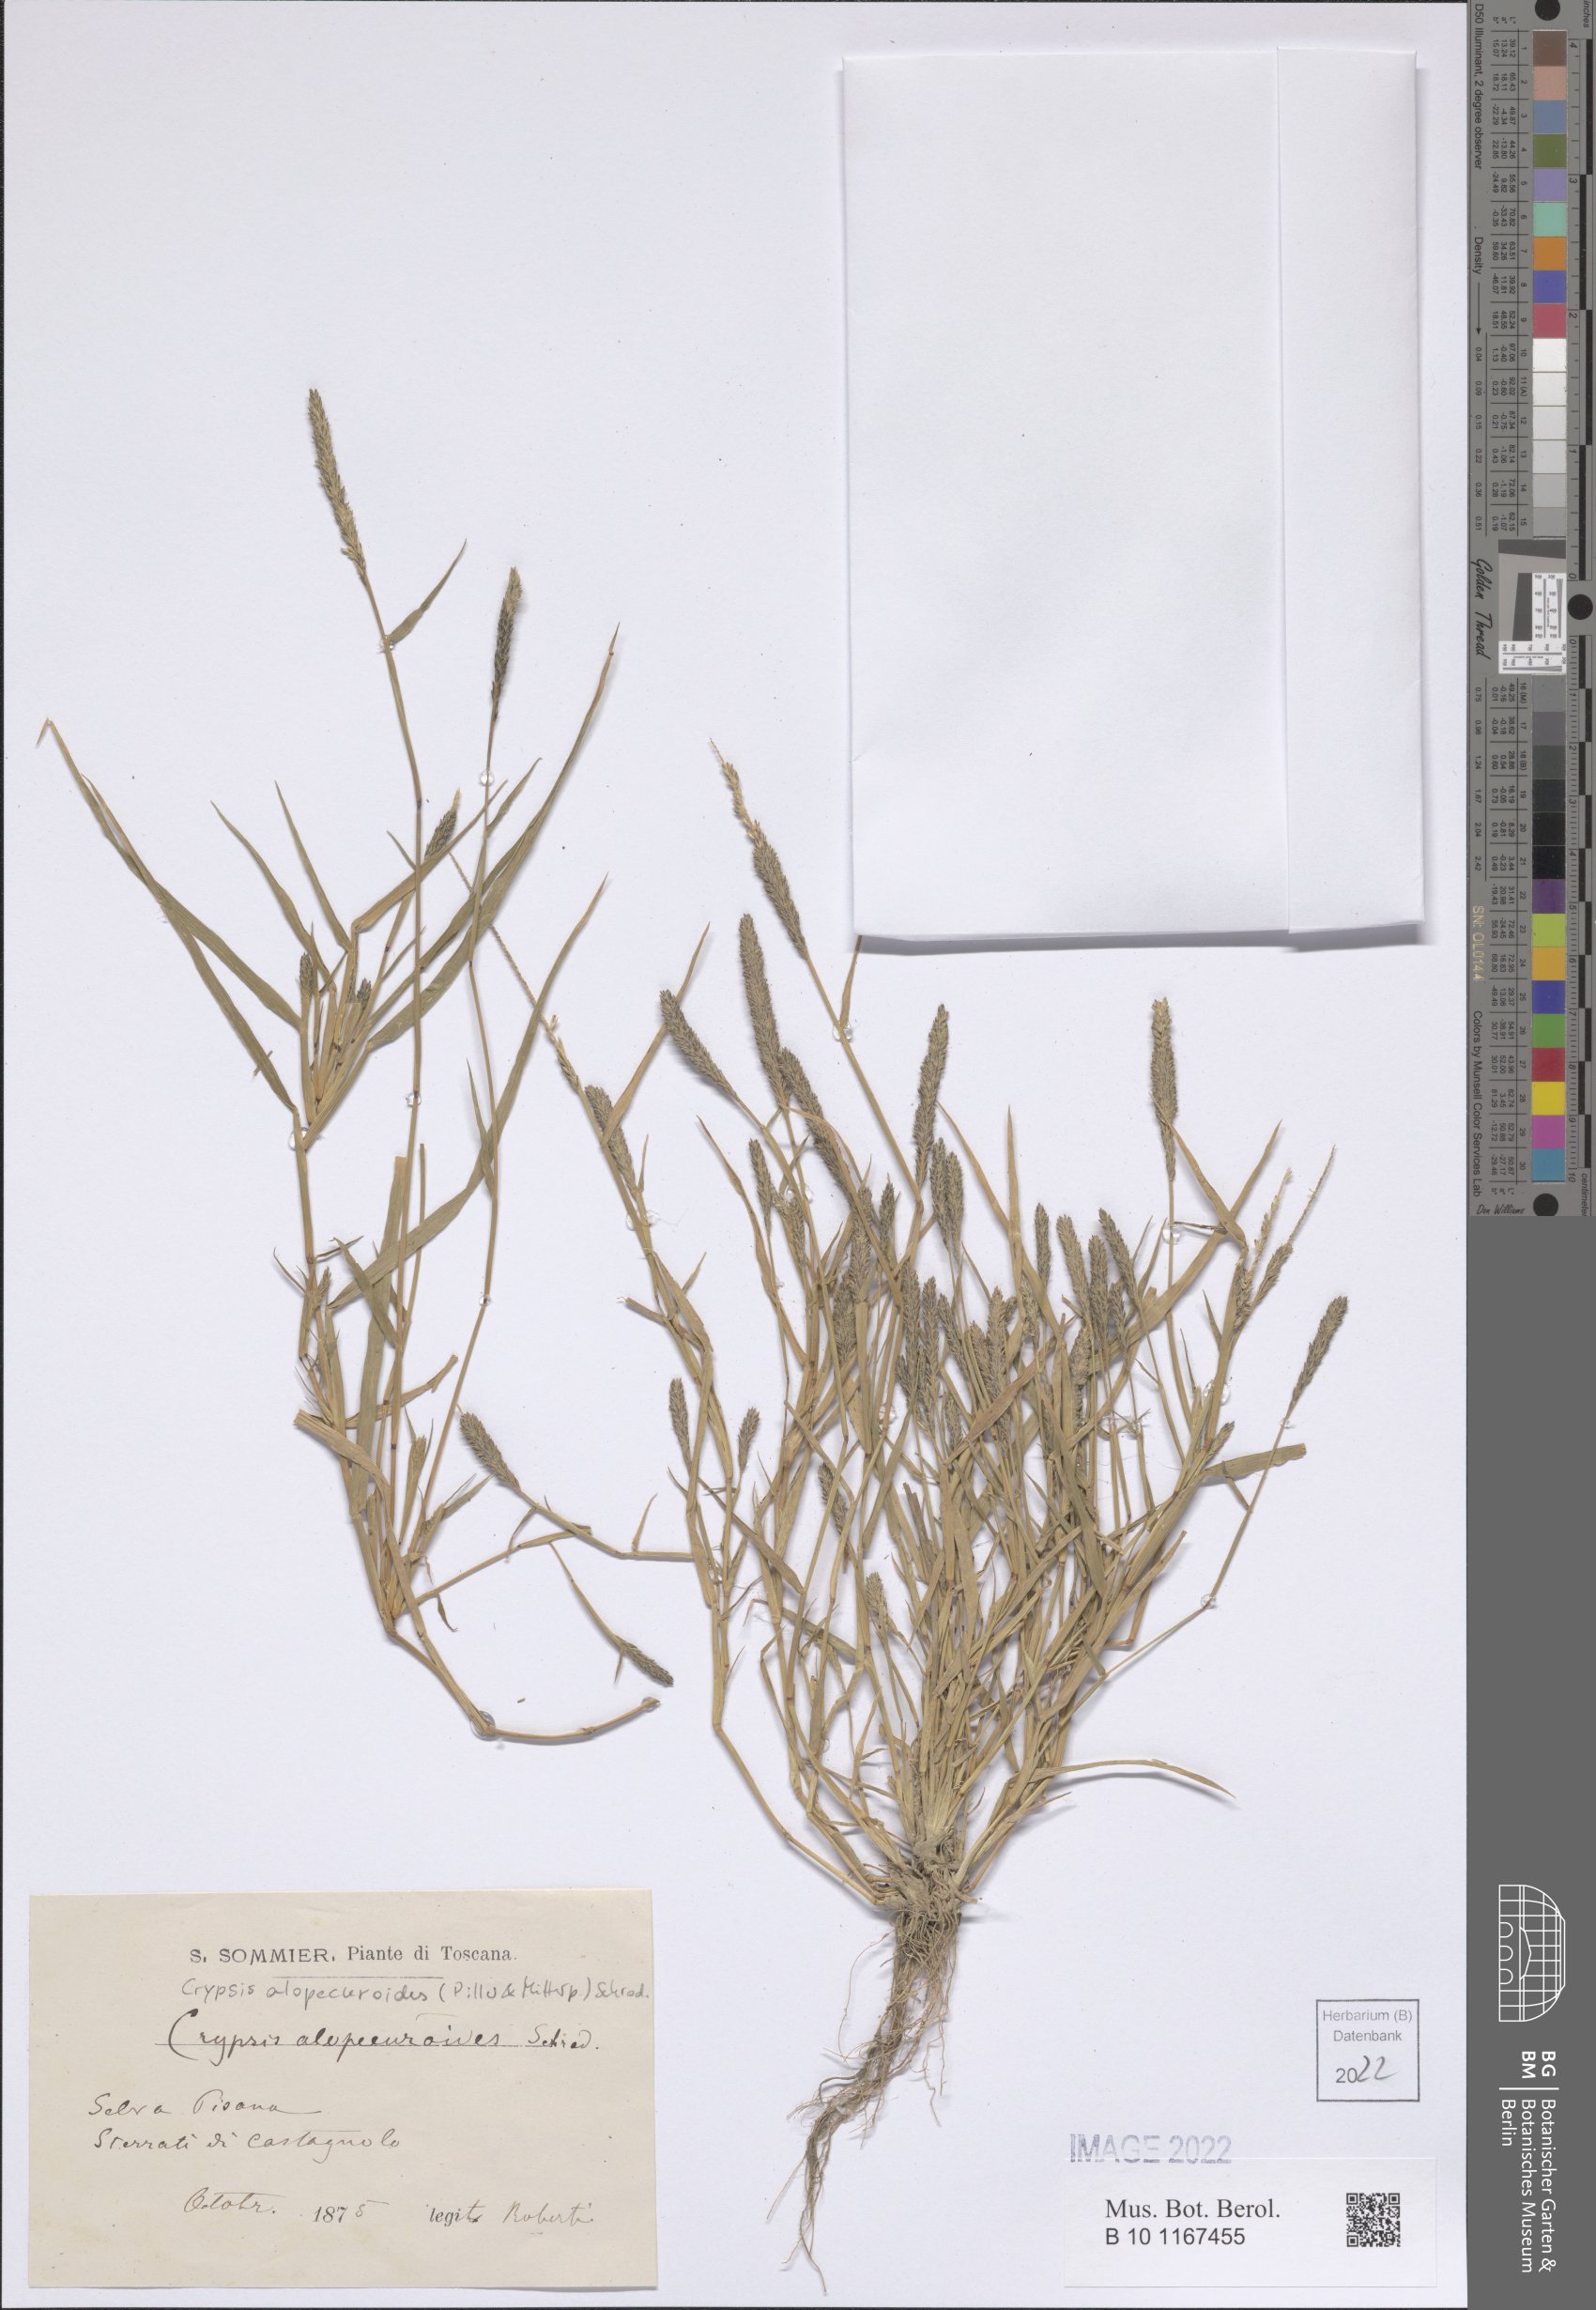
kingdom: Plantae
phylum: Tracheophyta
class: Liliopsida
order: Poales
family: Poaceae
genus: Sporobolus
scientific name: Sporobolus alopecuroides
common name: Foxtail pricklegrass
